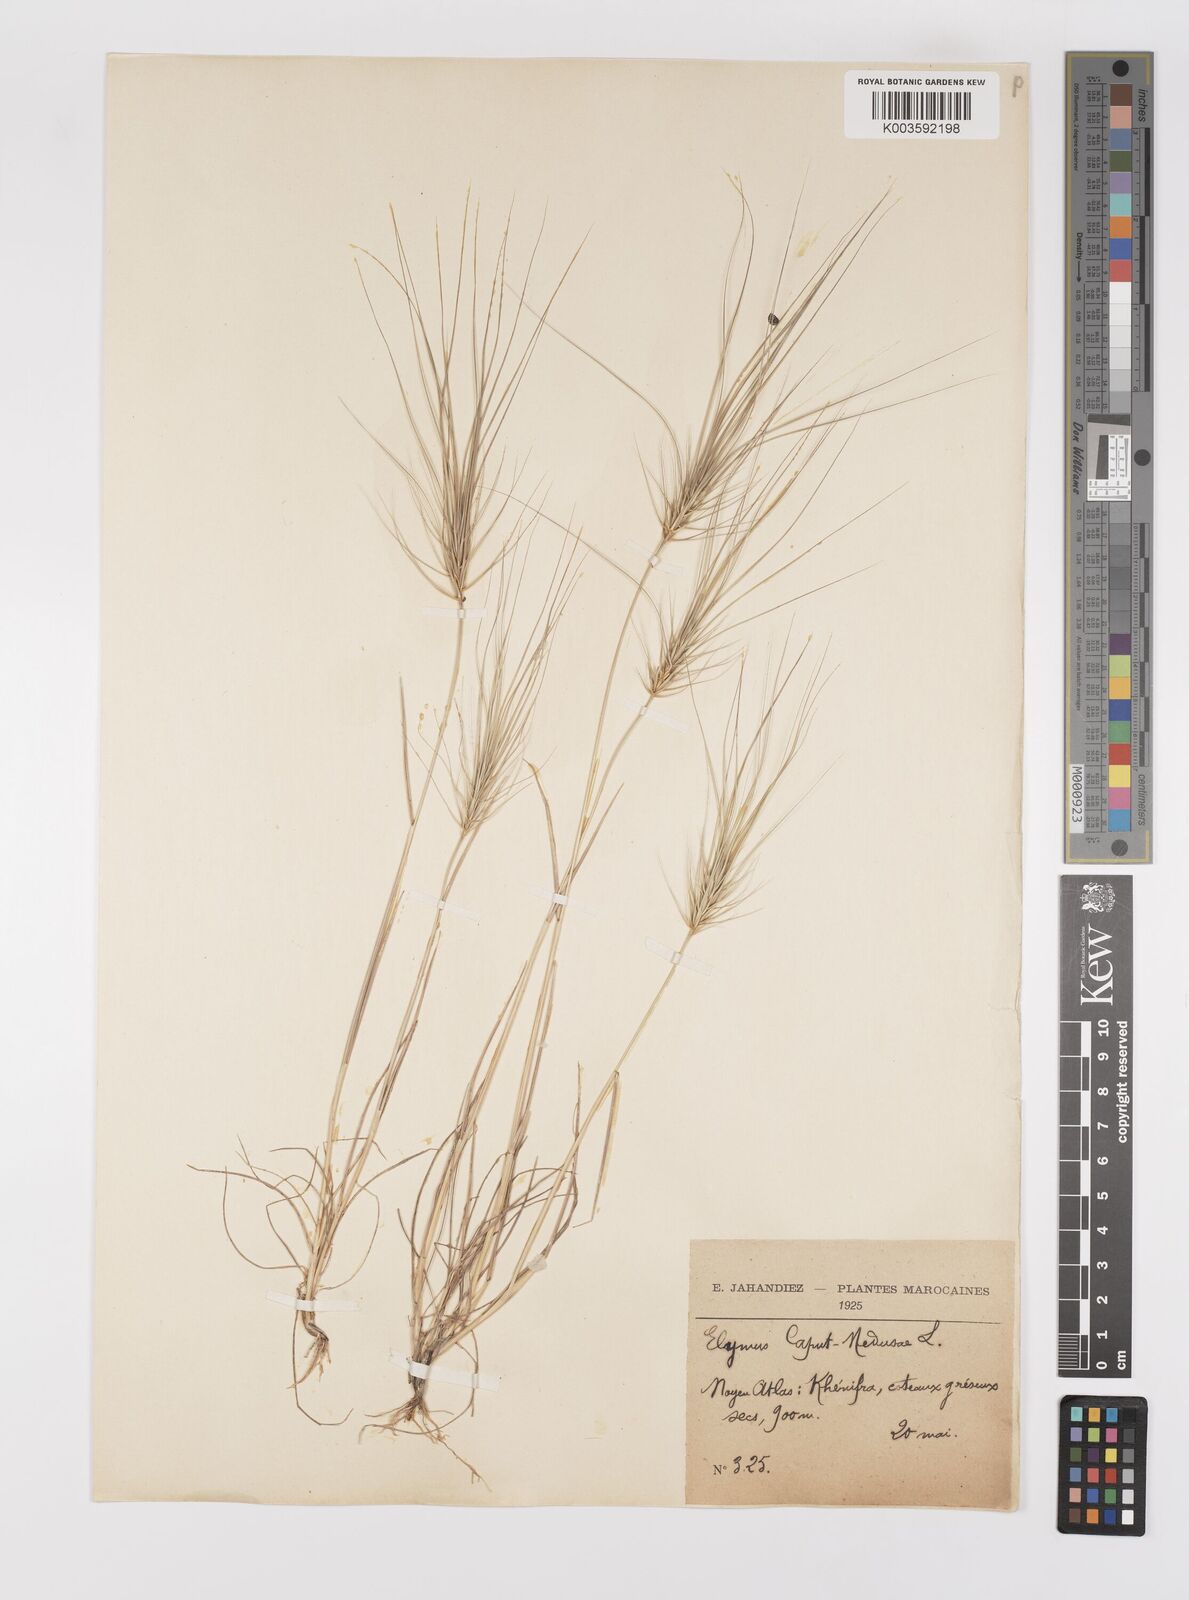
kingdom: Plantae
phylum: Tracheophyta
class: Liliopsida
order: Poales
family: Poaceae
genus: Taeniatherum
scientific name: Taeniatherum caput-medusae
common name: Medusahead
